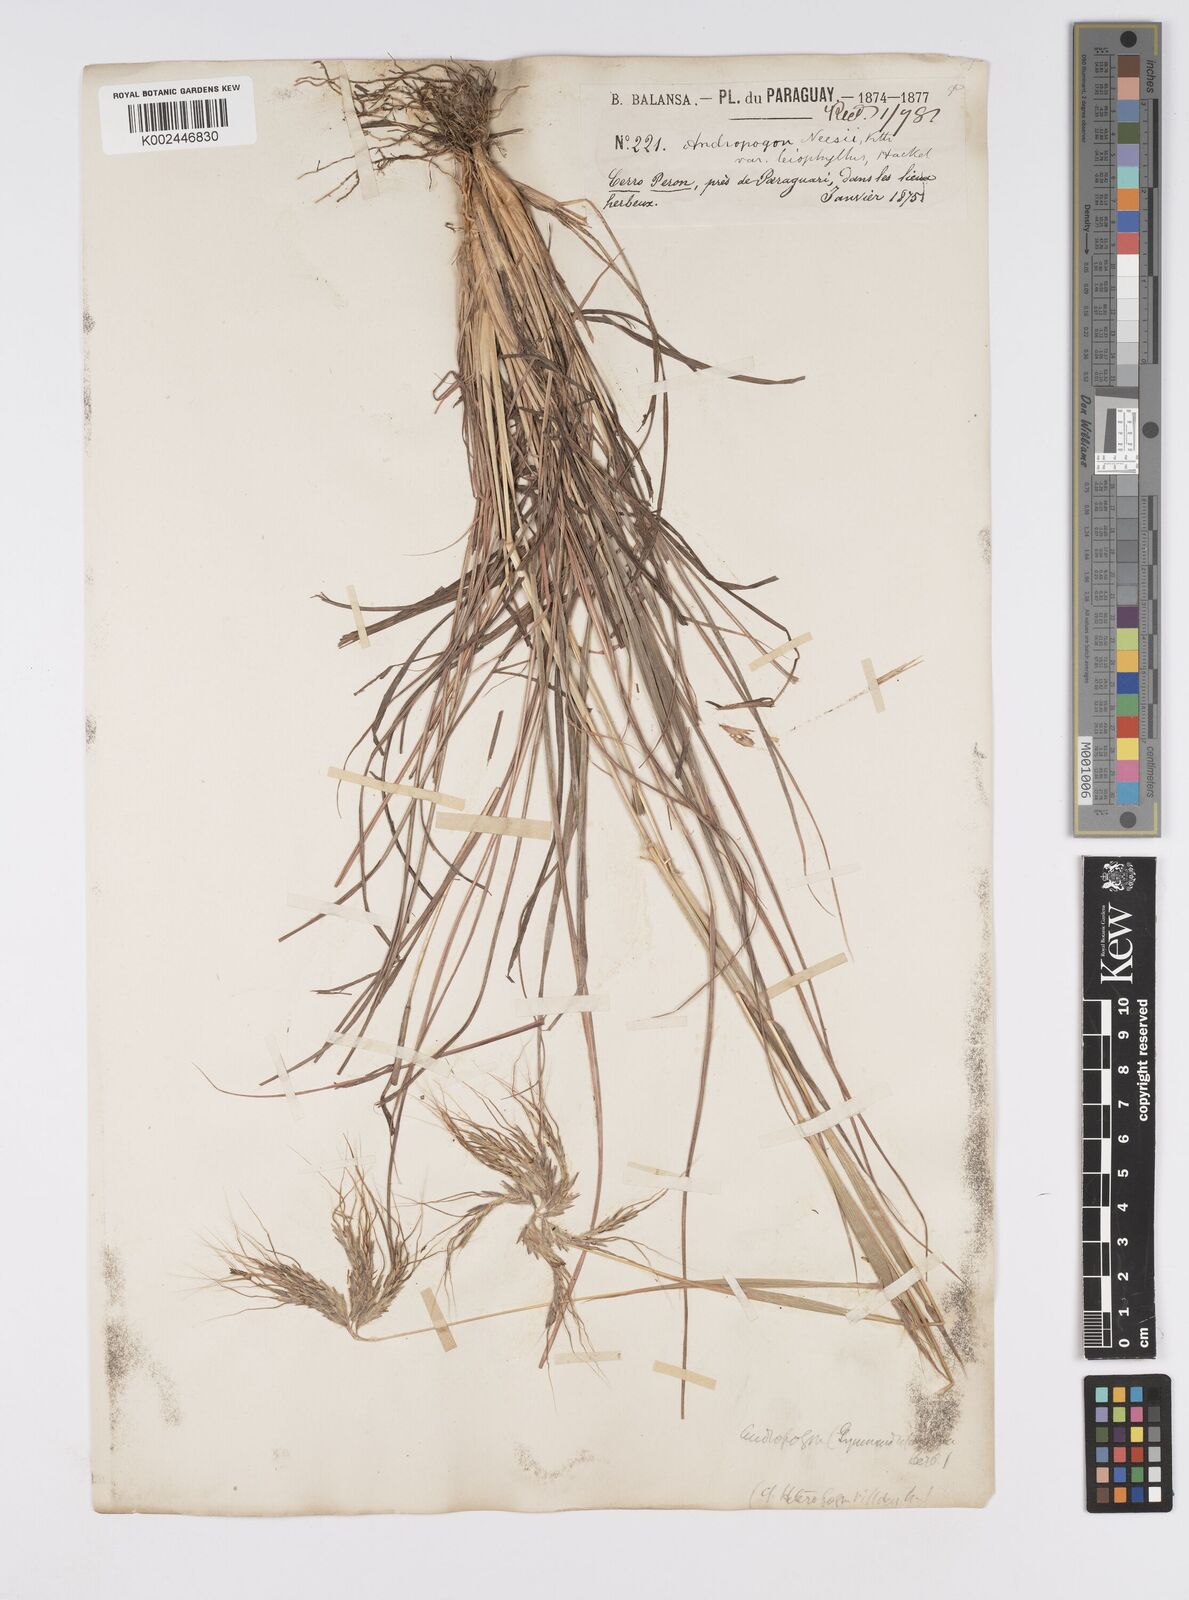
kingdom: Plantae
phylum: Tracheophyta
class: Liliopsida
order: Poales
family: Poaceae
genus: Agenium
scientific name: Agenium villosum
